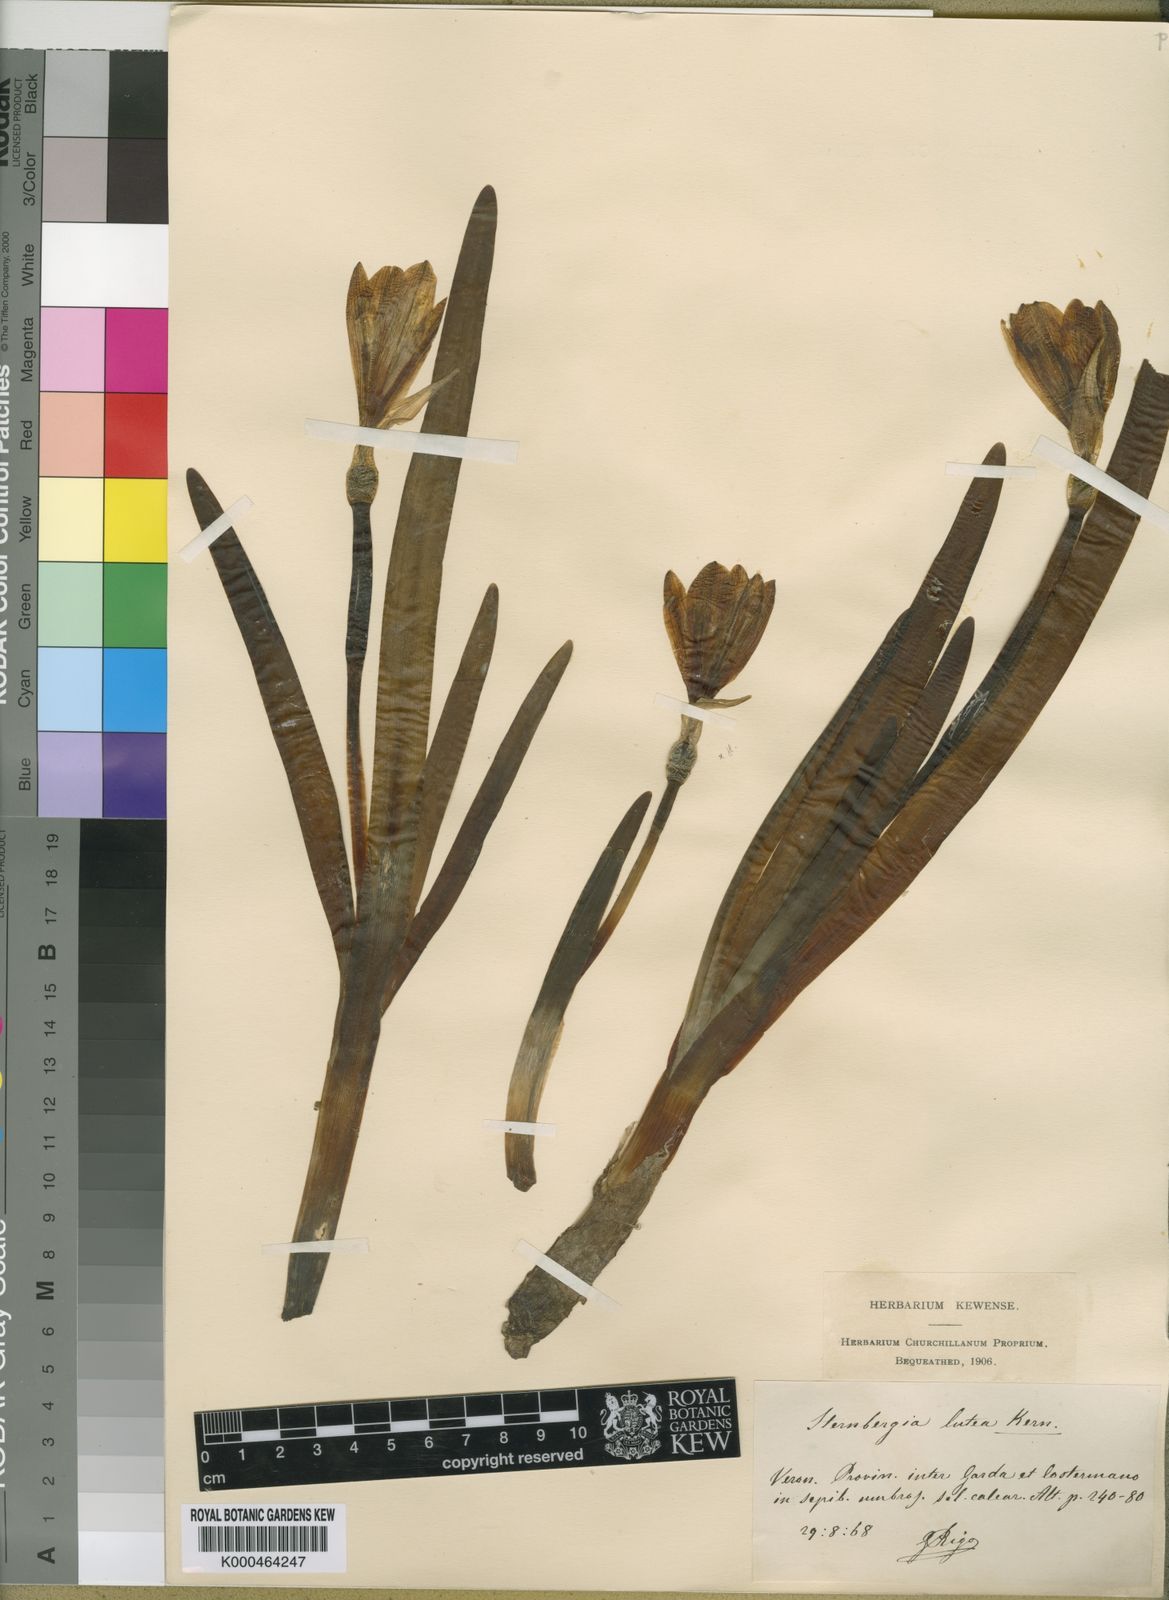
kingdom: Plantae
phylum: Tracheophyta
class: Liliopsida
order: Asparagales
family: Amaryllidaceae
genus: Sternbergia
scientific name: Sternbergia
